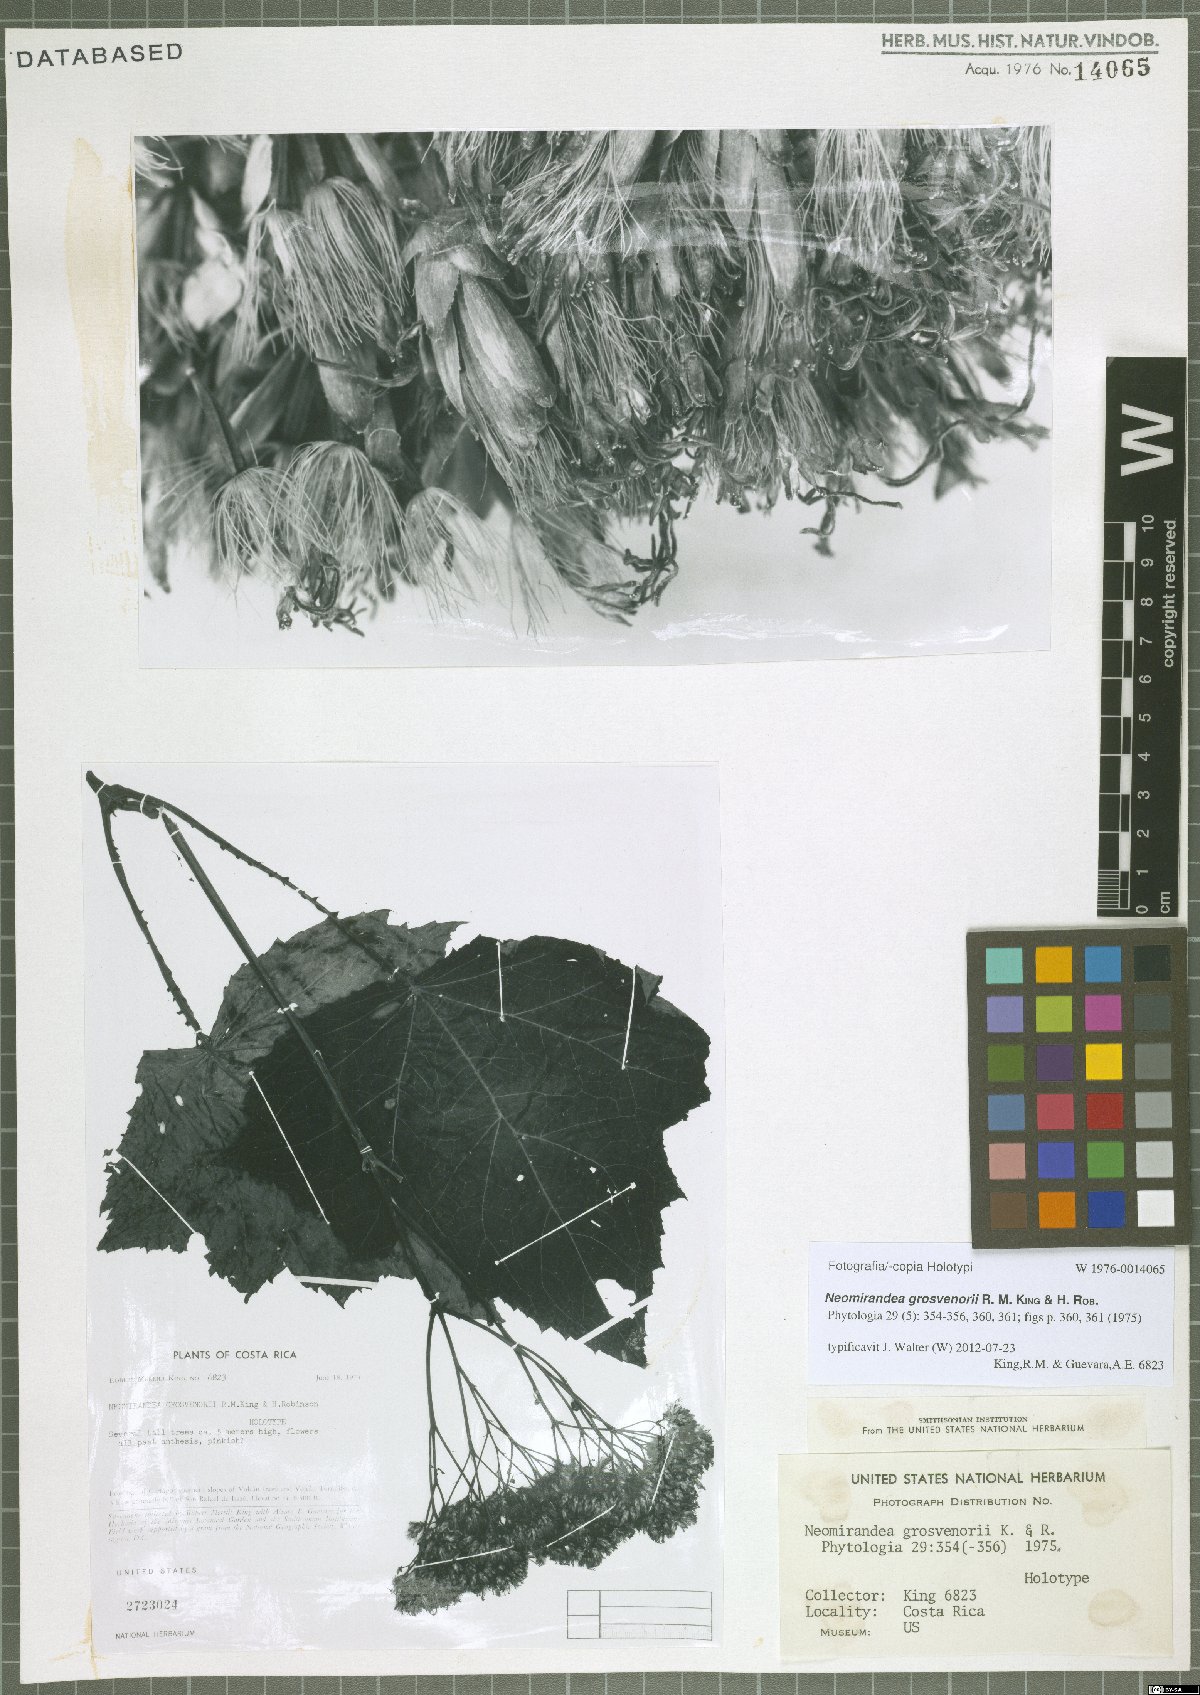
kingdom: Plantae
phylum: Tracheophyta
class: Magnoliopsida
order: Asterales
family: Asteraceae
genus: Neomirandea
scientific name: Neomirandea burgeri
